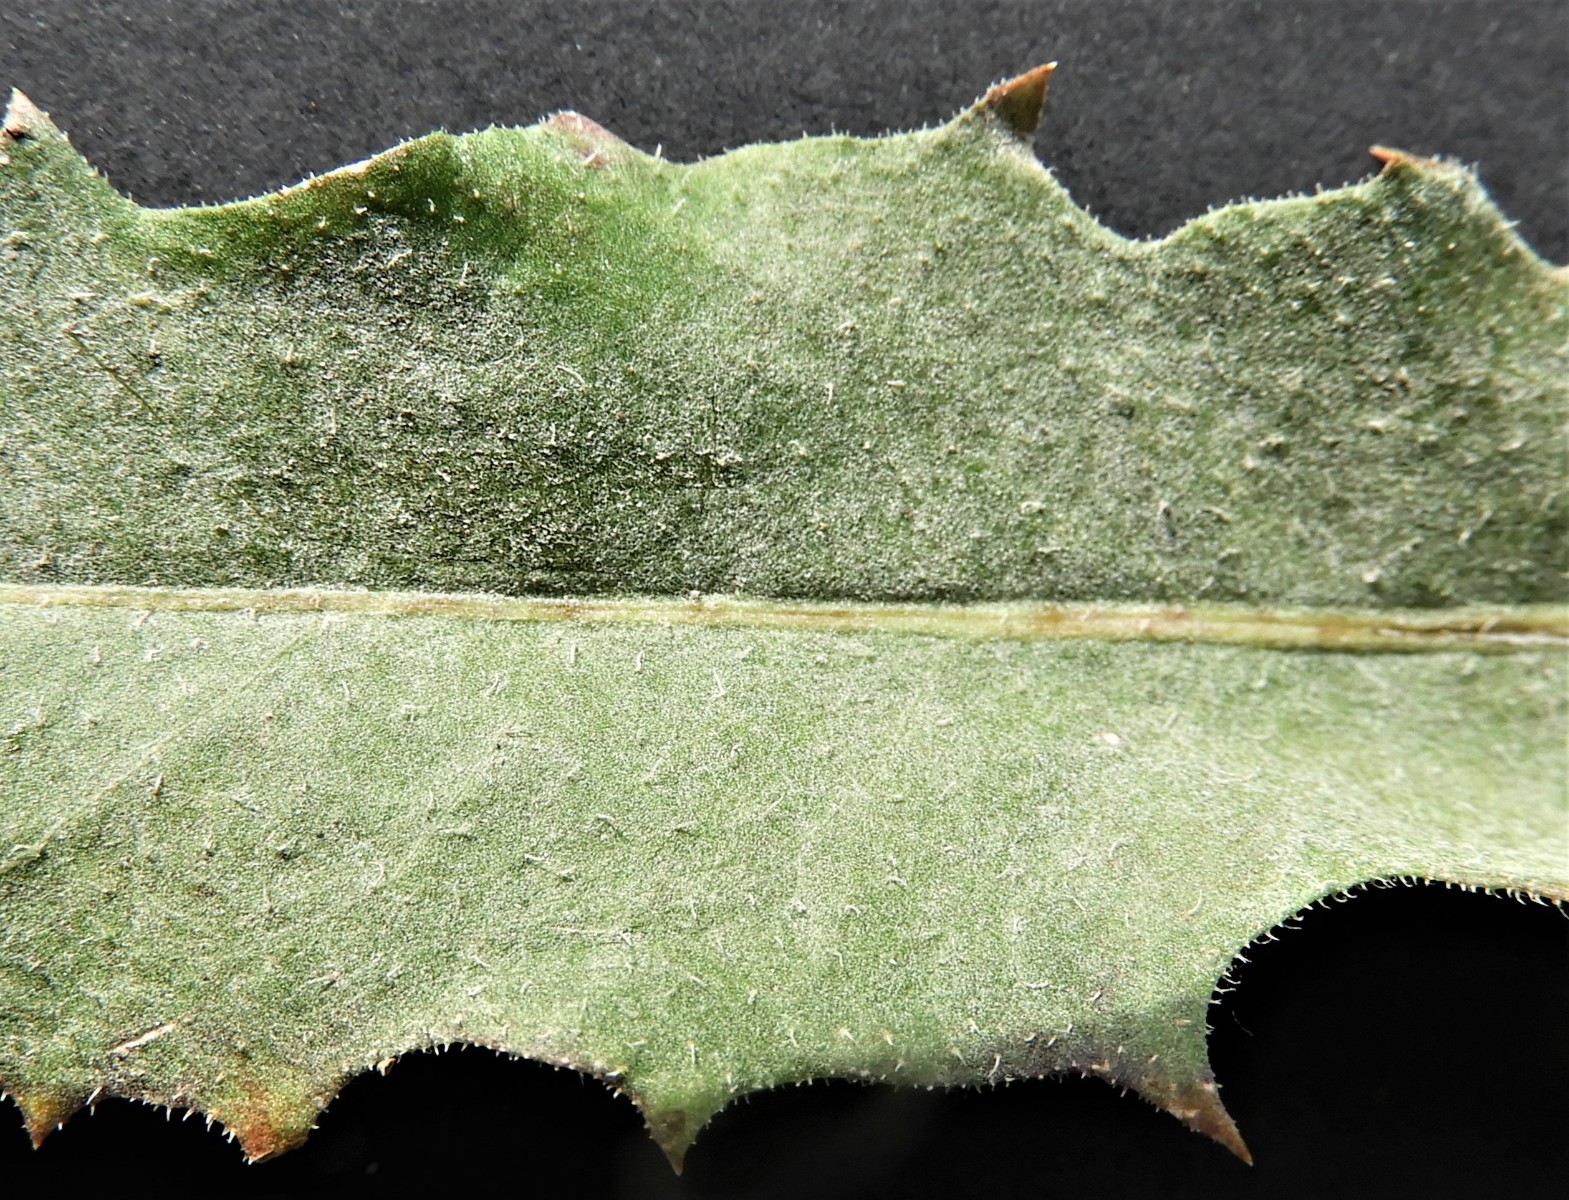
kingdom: Fungi
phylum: Ascomycota
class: Leotiomycetes
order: Helotiales
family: Erysiphaceae
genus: Golovinomyces
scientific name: Golovinomyces cichoracearum
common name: kurvblomst-meldug
